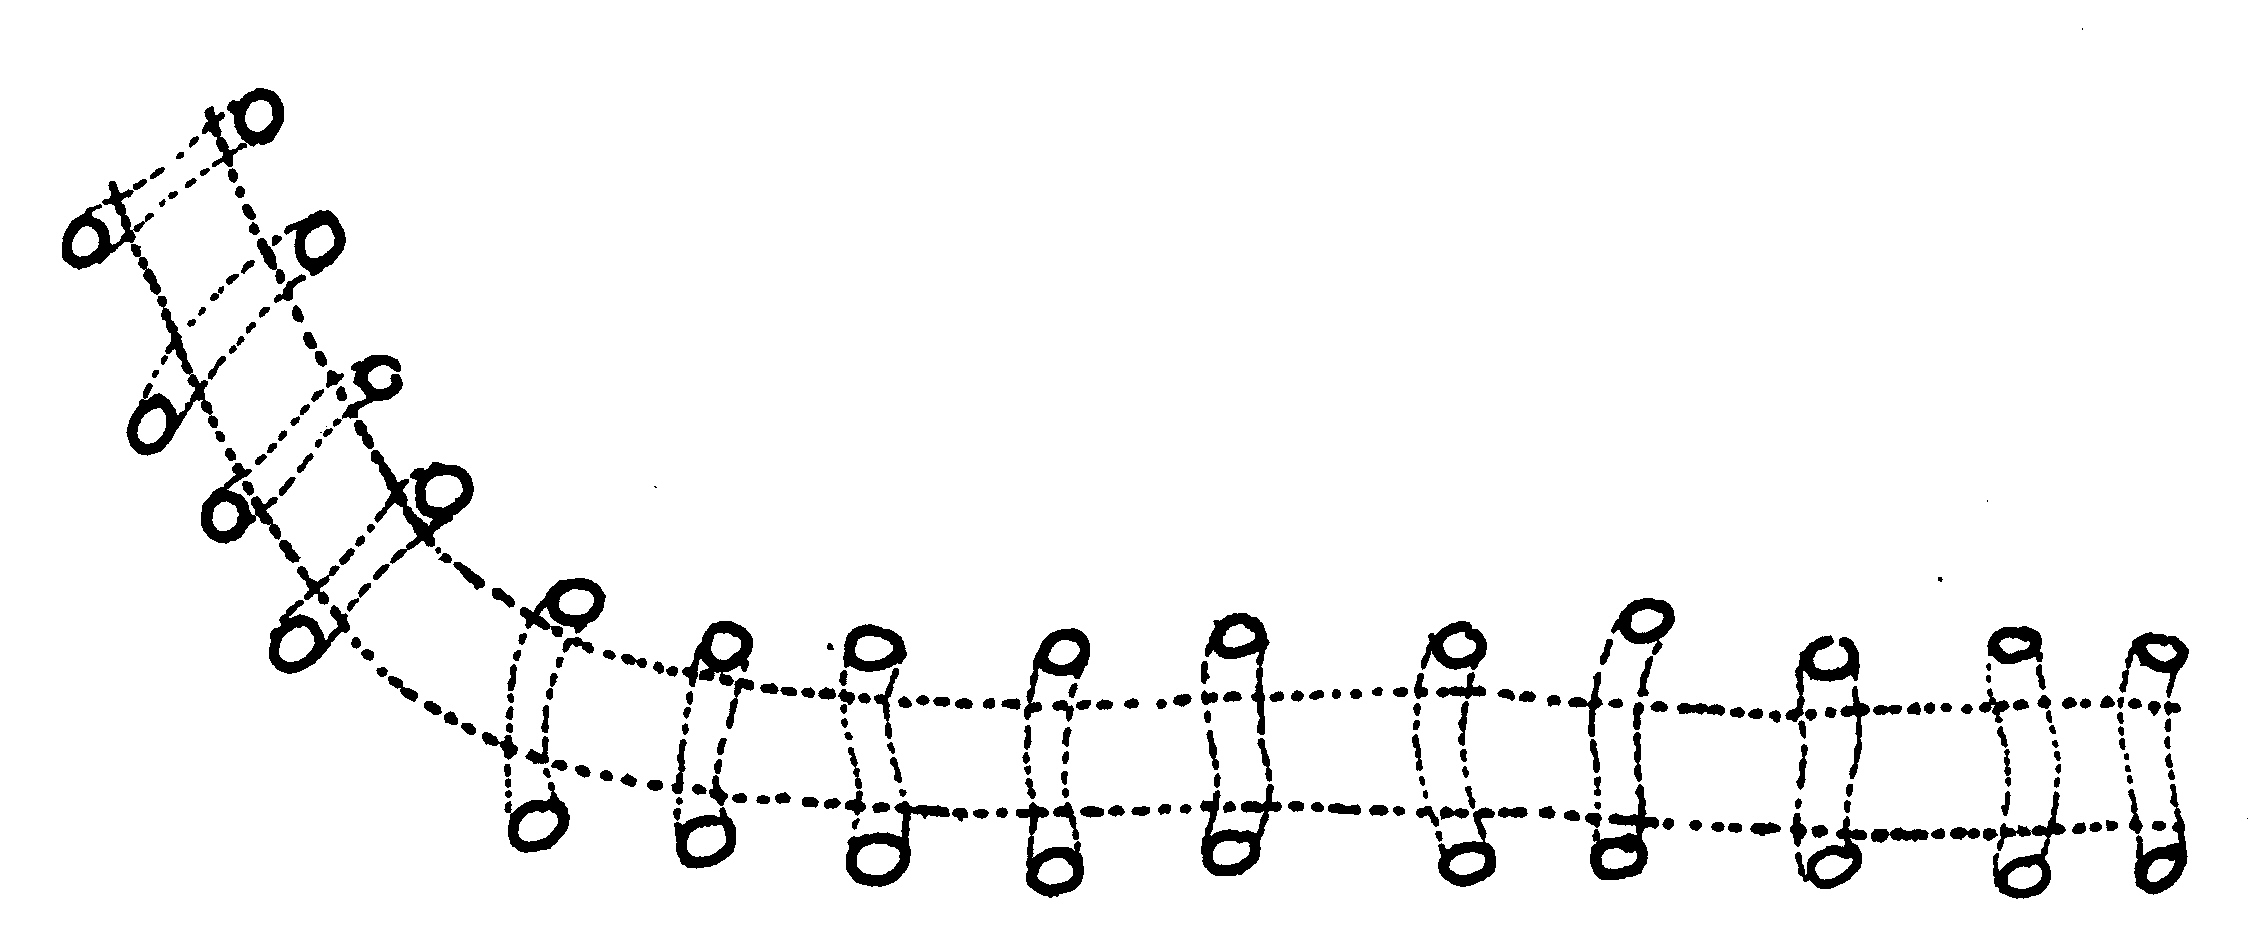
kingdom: Animalia
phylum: Chordata
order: Perciformes
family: Clinidae
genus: Climacoporus
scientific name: Climacoporus navalis
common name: Fleet klipfish
